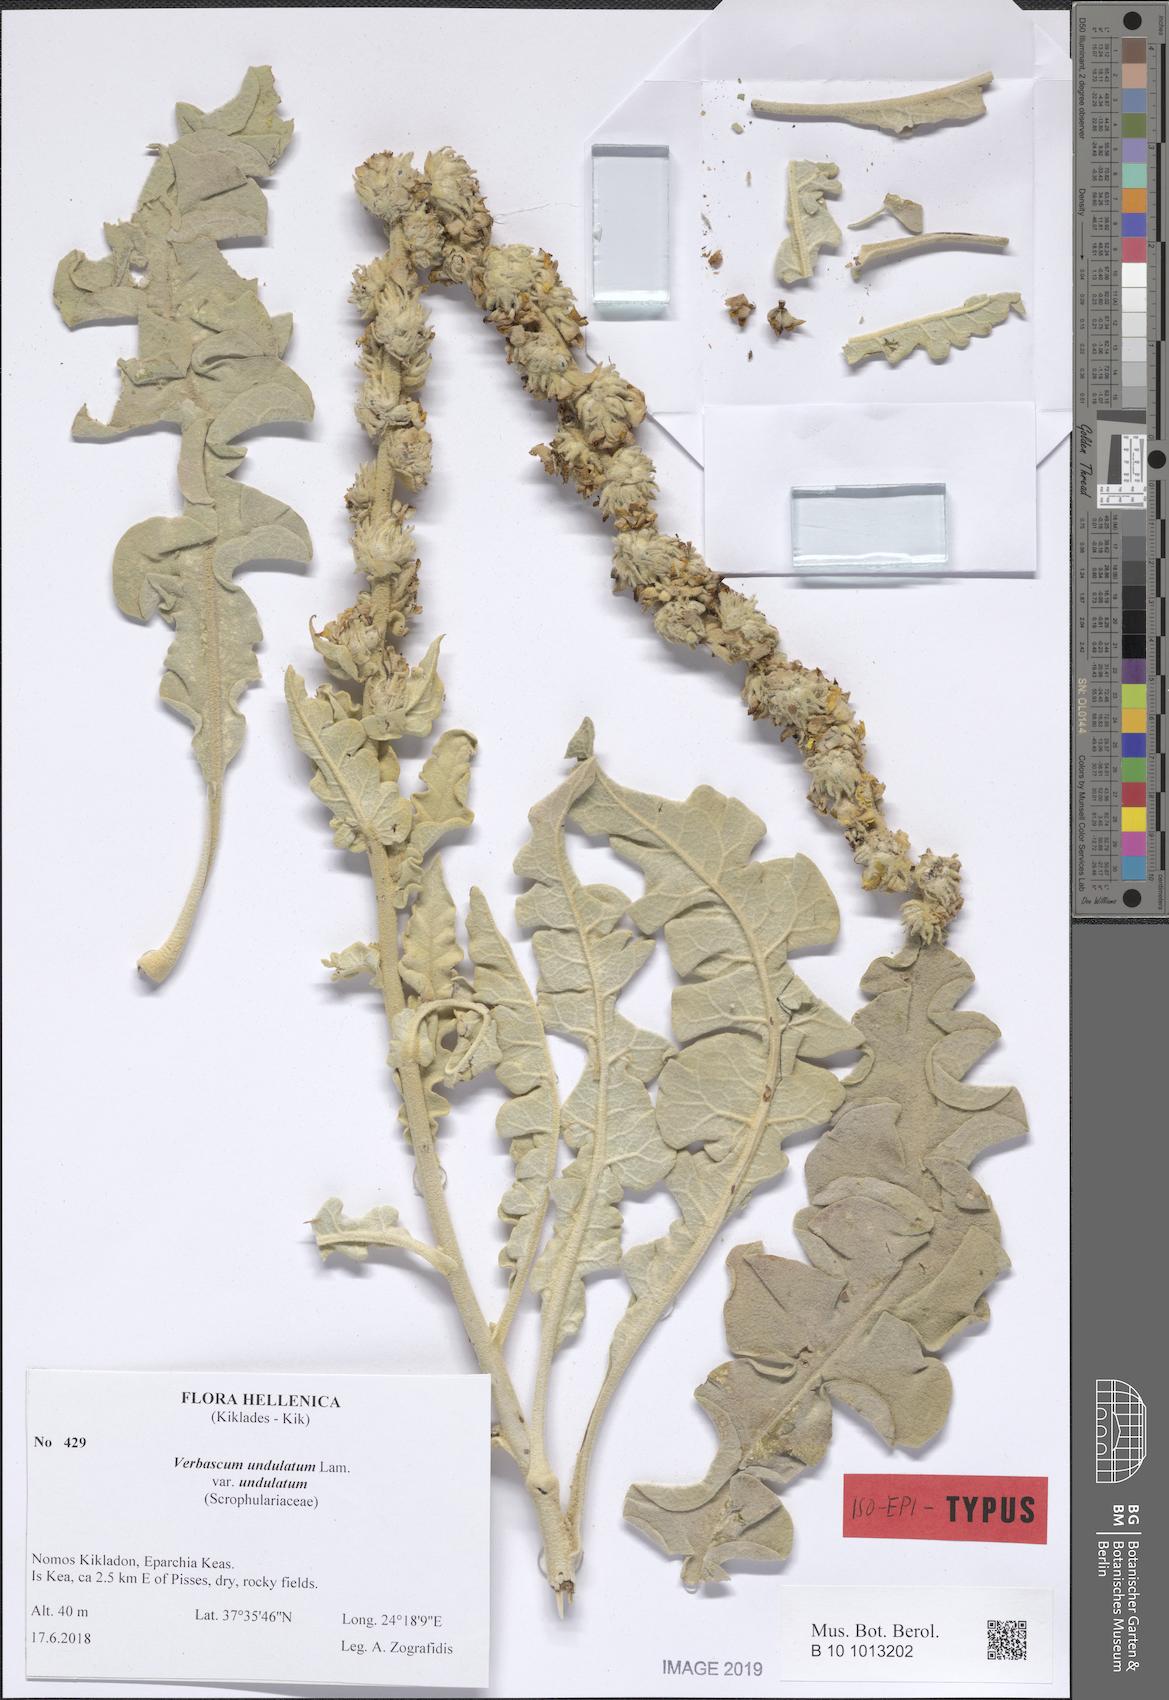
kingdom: Plantae
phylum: Tracheophyta
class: Magnoliopsida
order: Lamiales
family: Scrophulariaceae
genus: Verbascum
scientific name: Verbascum undulatum
